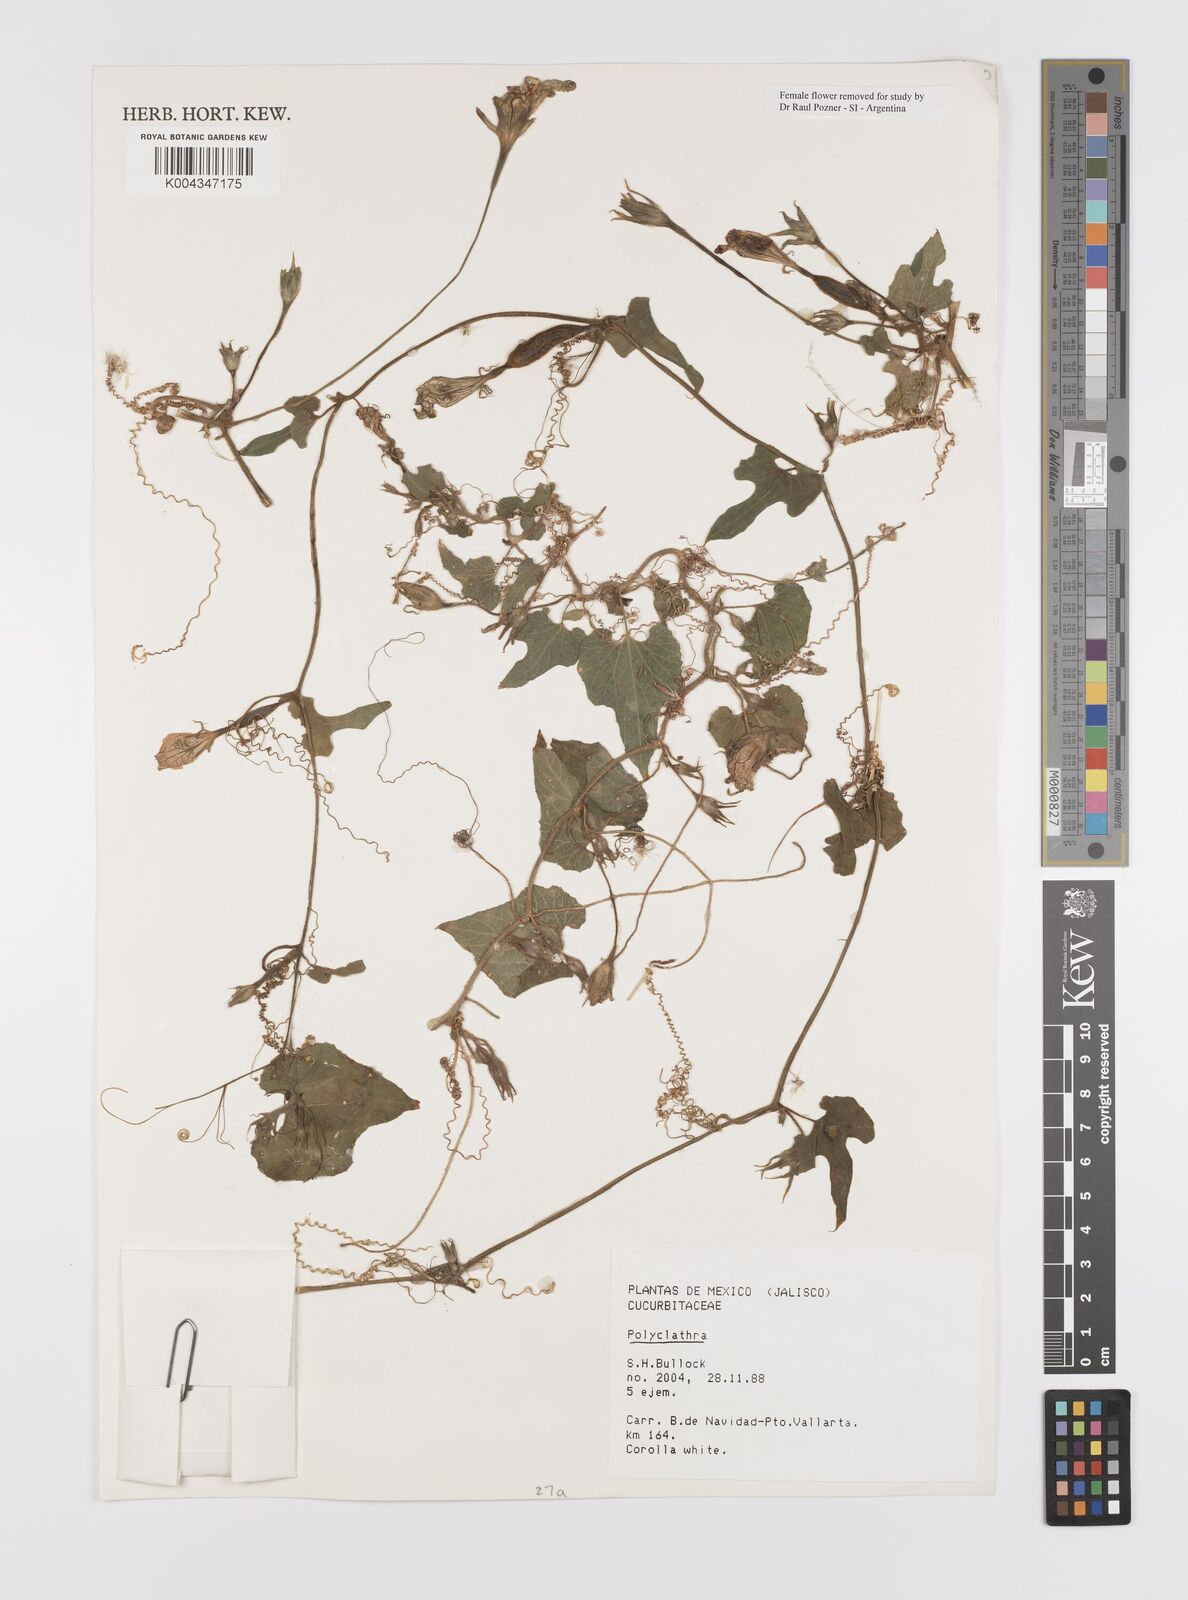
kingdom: Plantae
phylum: Tracheophyta
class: Magnoliopsida
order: Cucurbitales
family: Cucurbitaceae
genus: Polyclathra
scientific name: Polyclathra
